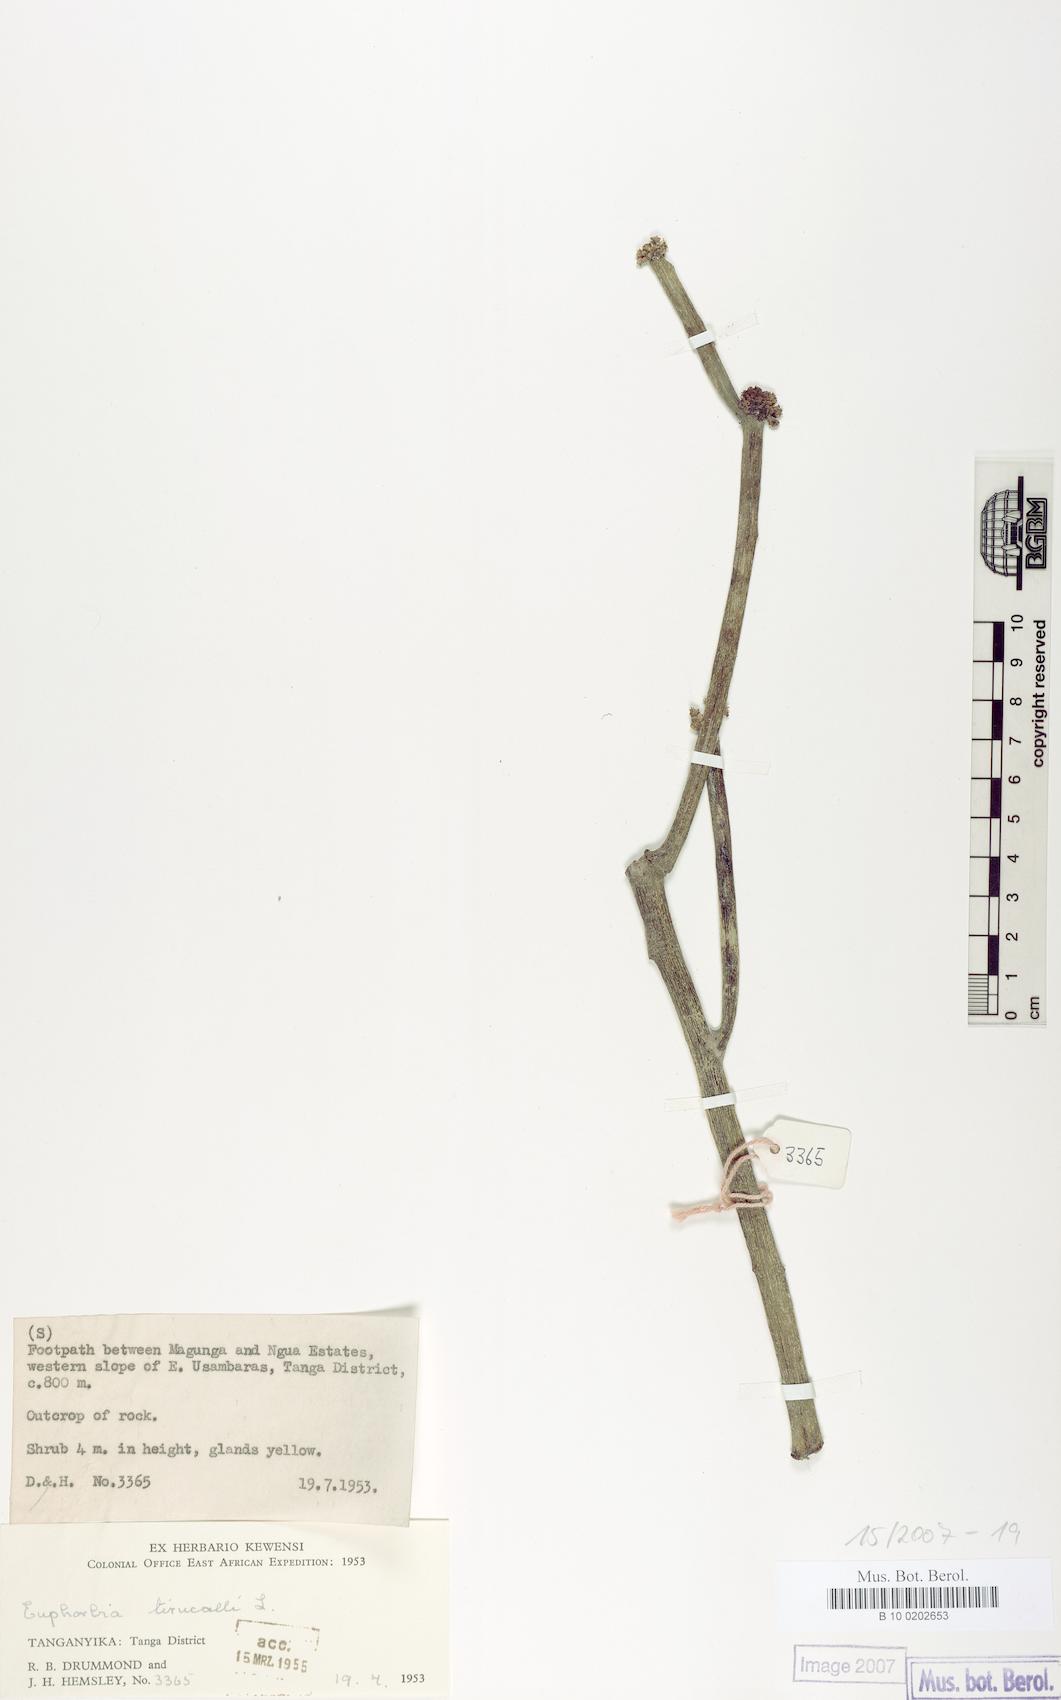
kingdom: Plantae
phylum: Tracheophyta
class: Magnoliopsida
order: Malpighiales
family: Euphorbiaceae
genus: Euphorbia
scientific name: Euphorbia tirucalli
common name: Indiantree spurge
